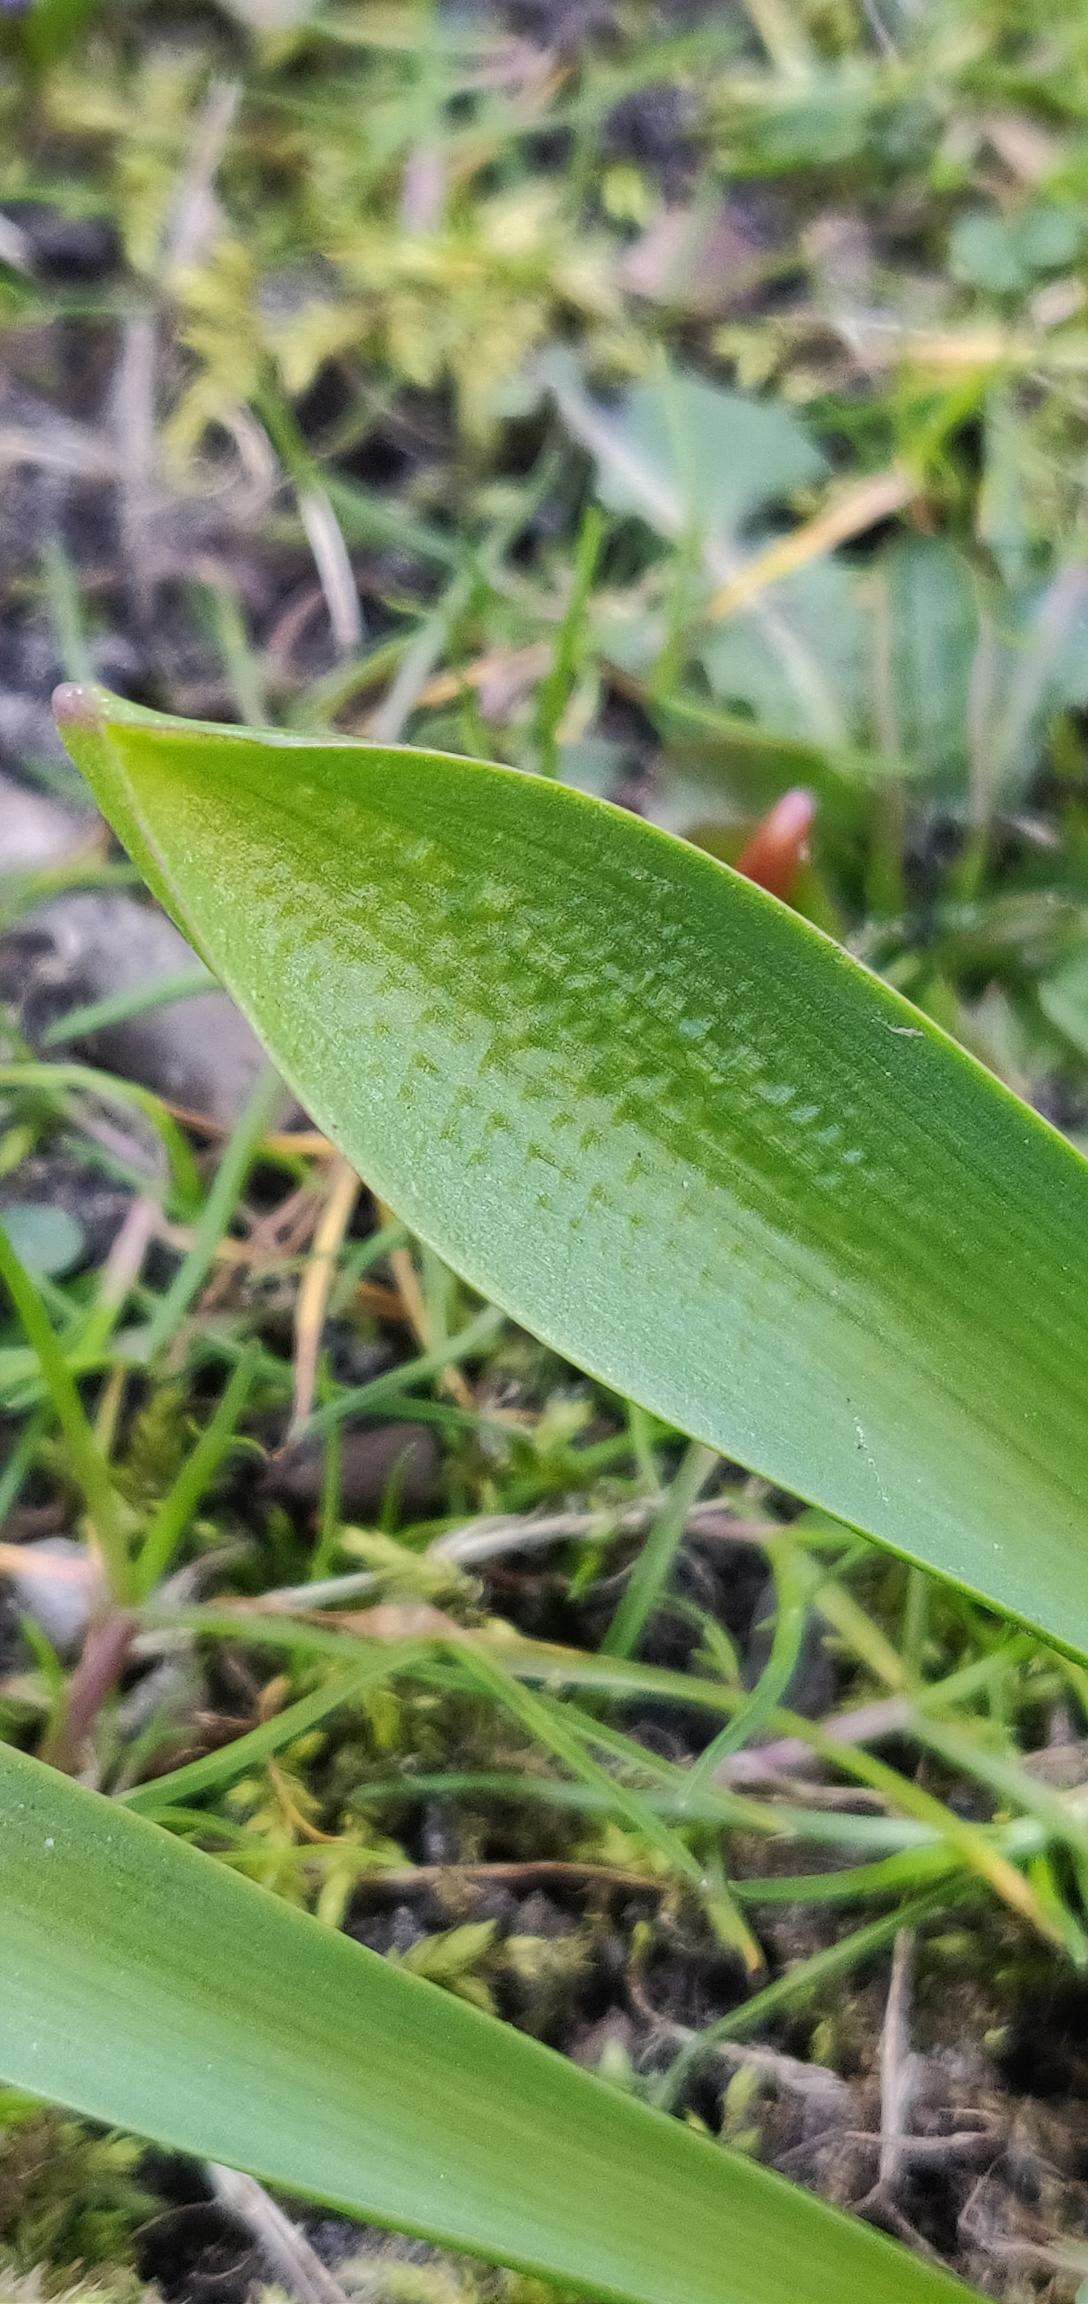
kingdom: Plantae
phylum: Tracheophyta
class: Liliopsida
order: Asparagales
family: Asparagaceae
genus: Puschkinia
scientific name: Puschkinia scilloides
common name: Porcelænshyacint
